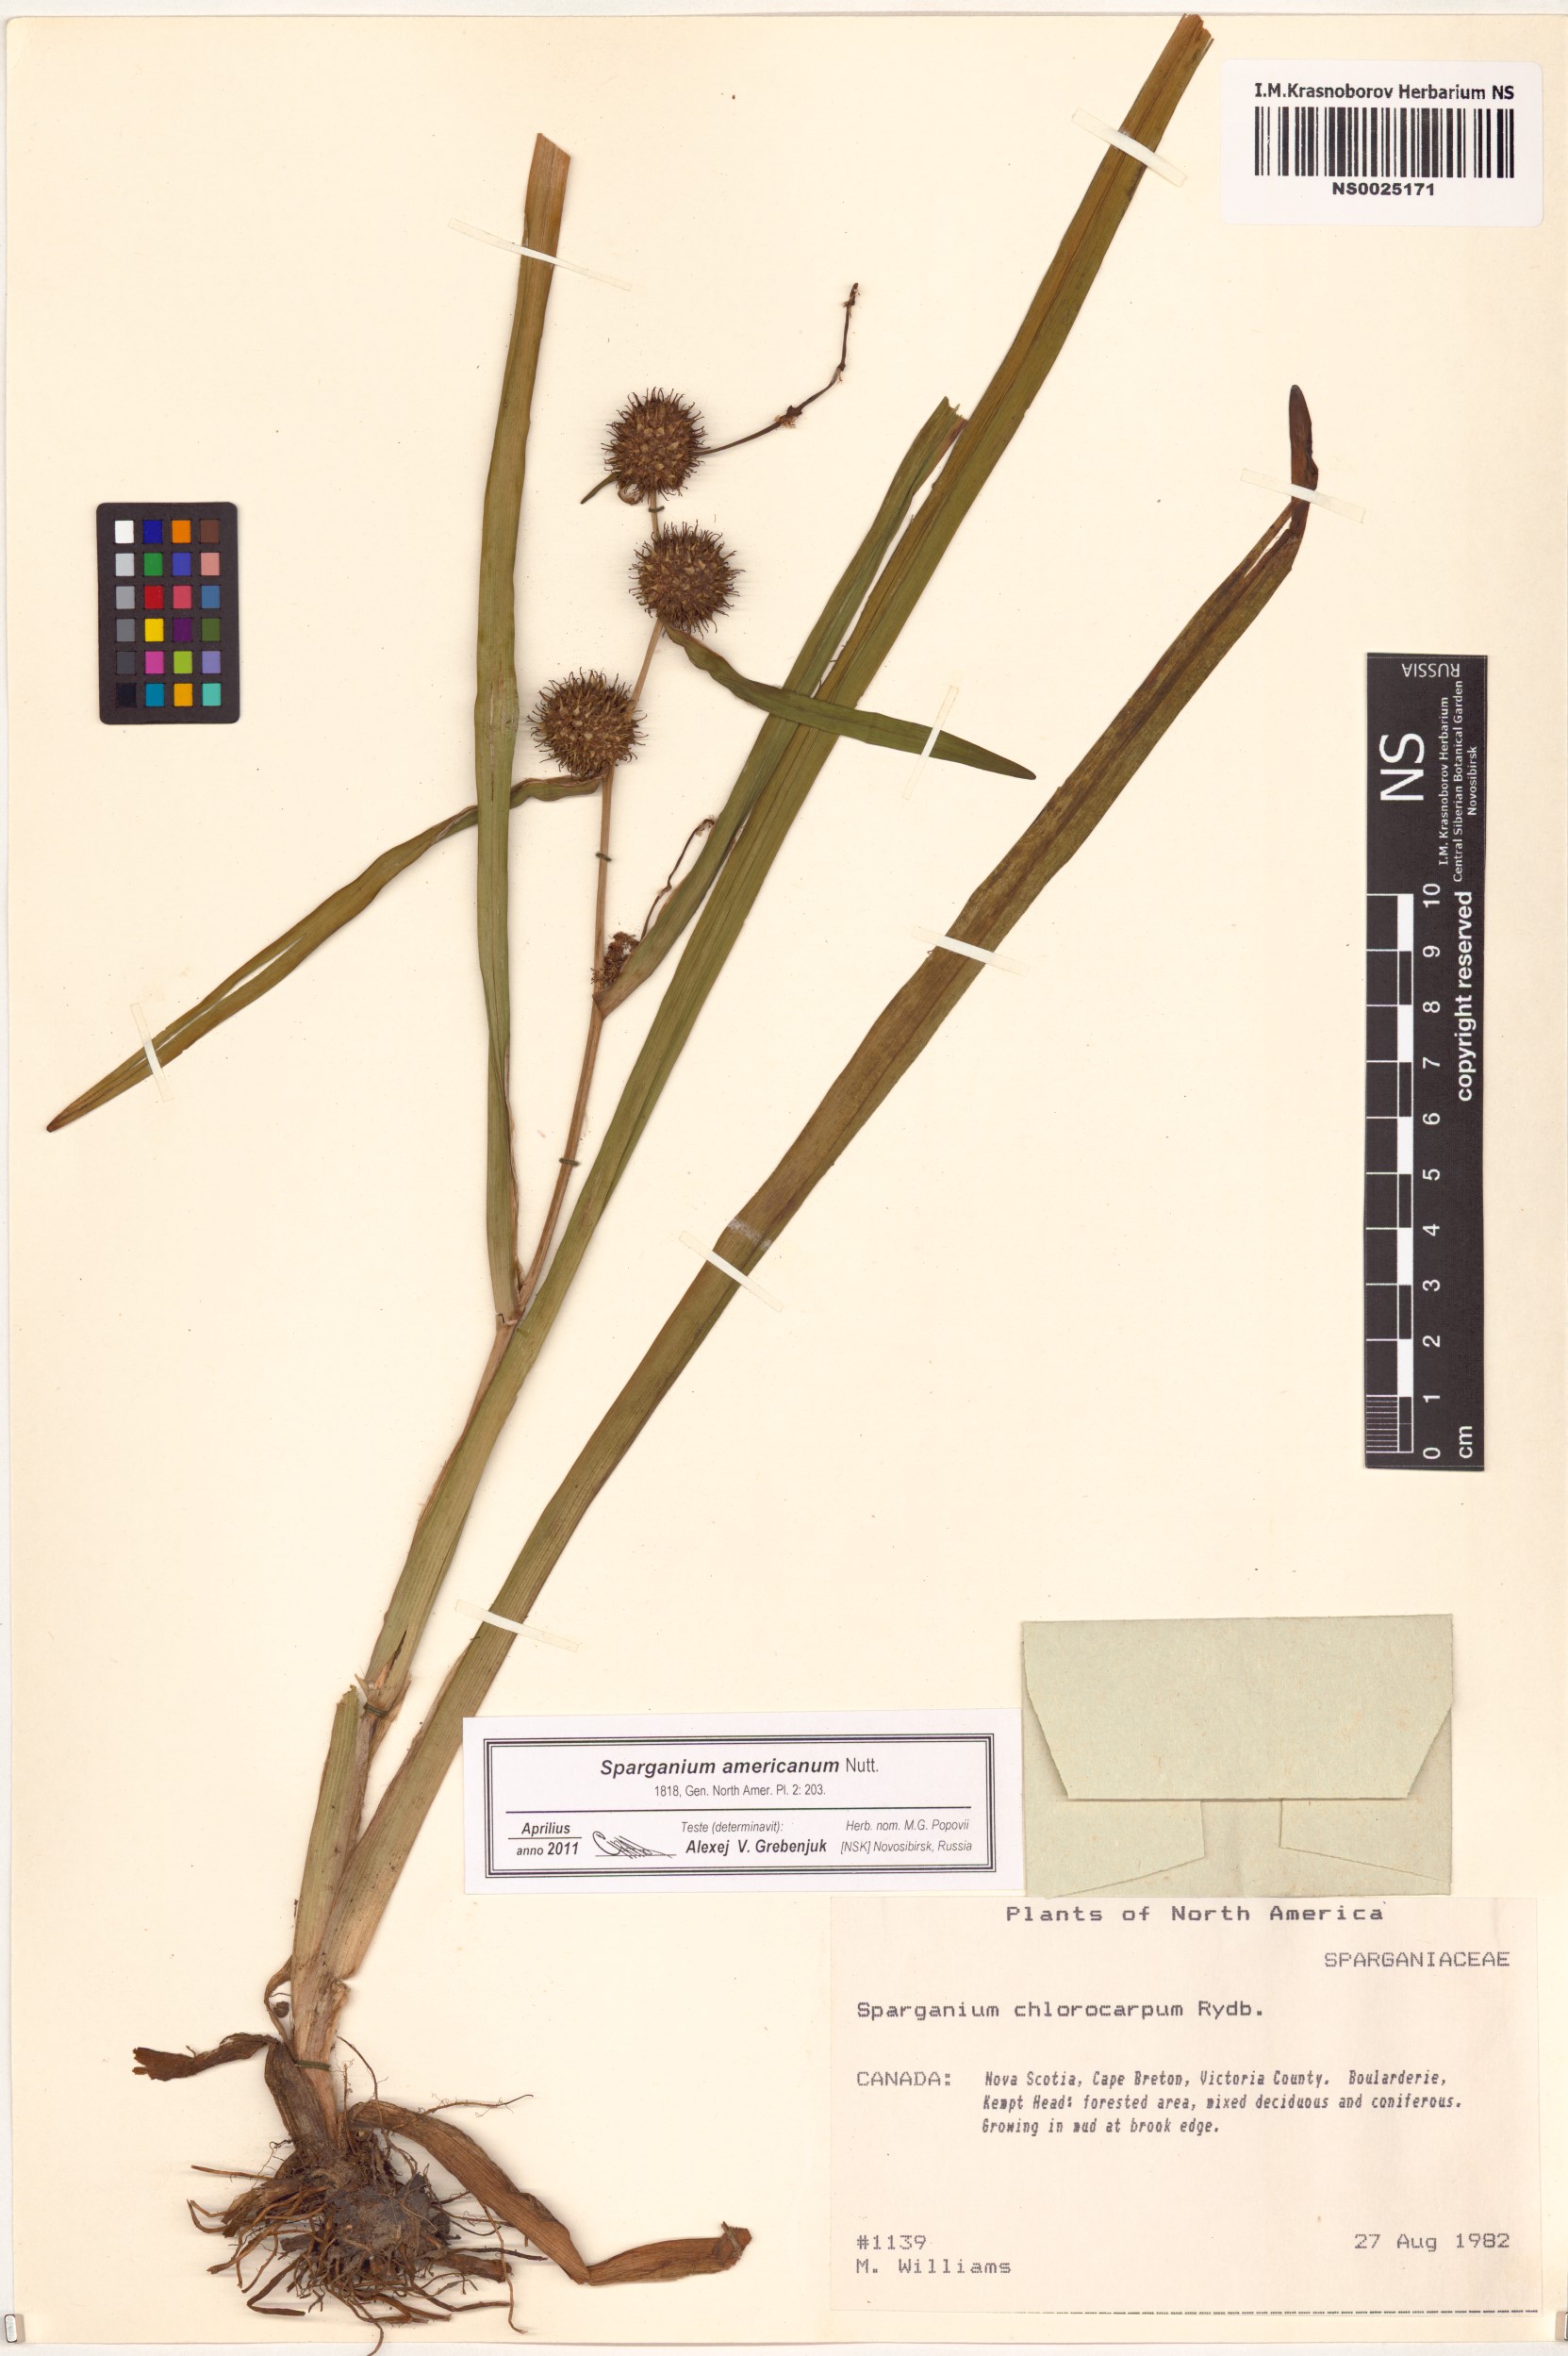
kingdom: Plantae
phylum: Tracheophyta
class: Liliopsida
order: Poales
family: Typhaceae
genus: Sparganium
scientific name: Sparganium americanum
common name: American burreed
